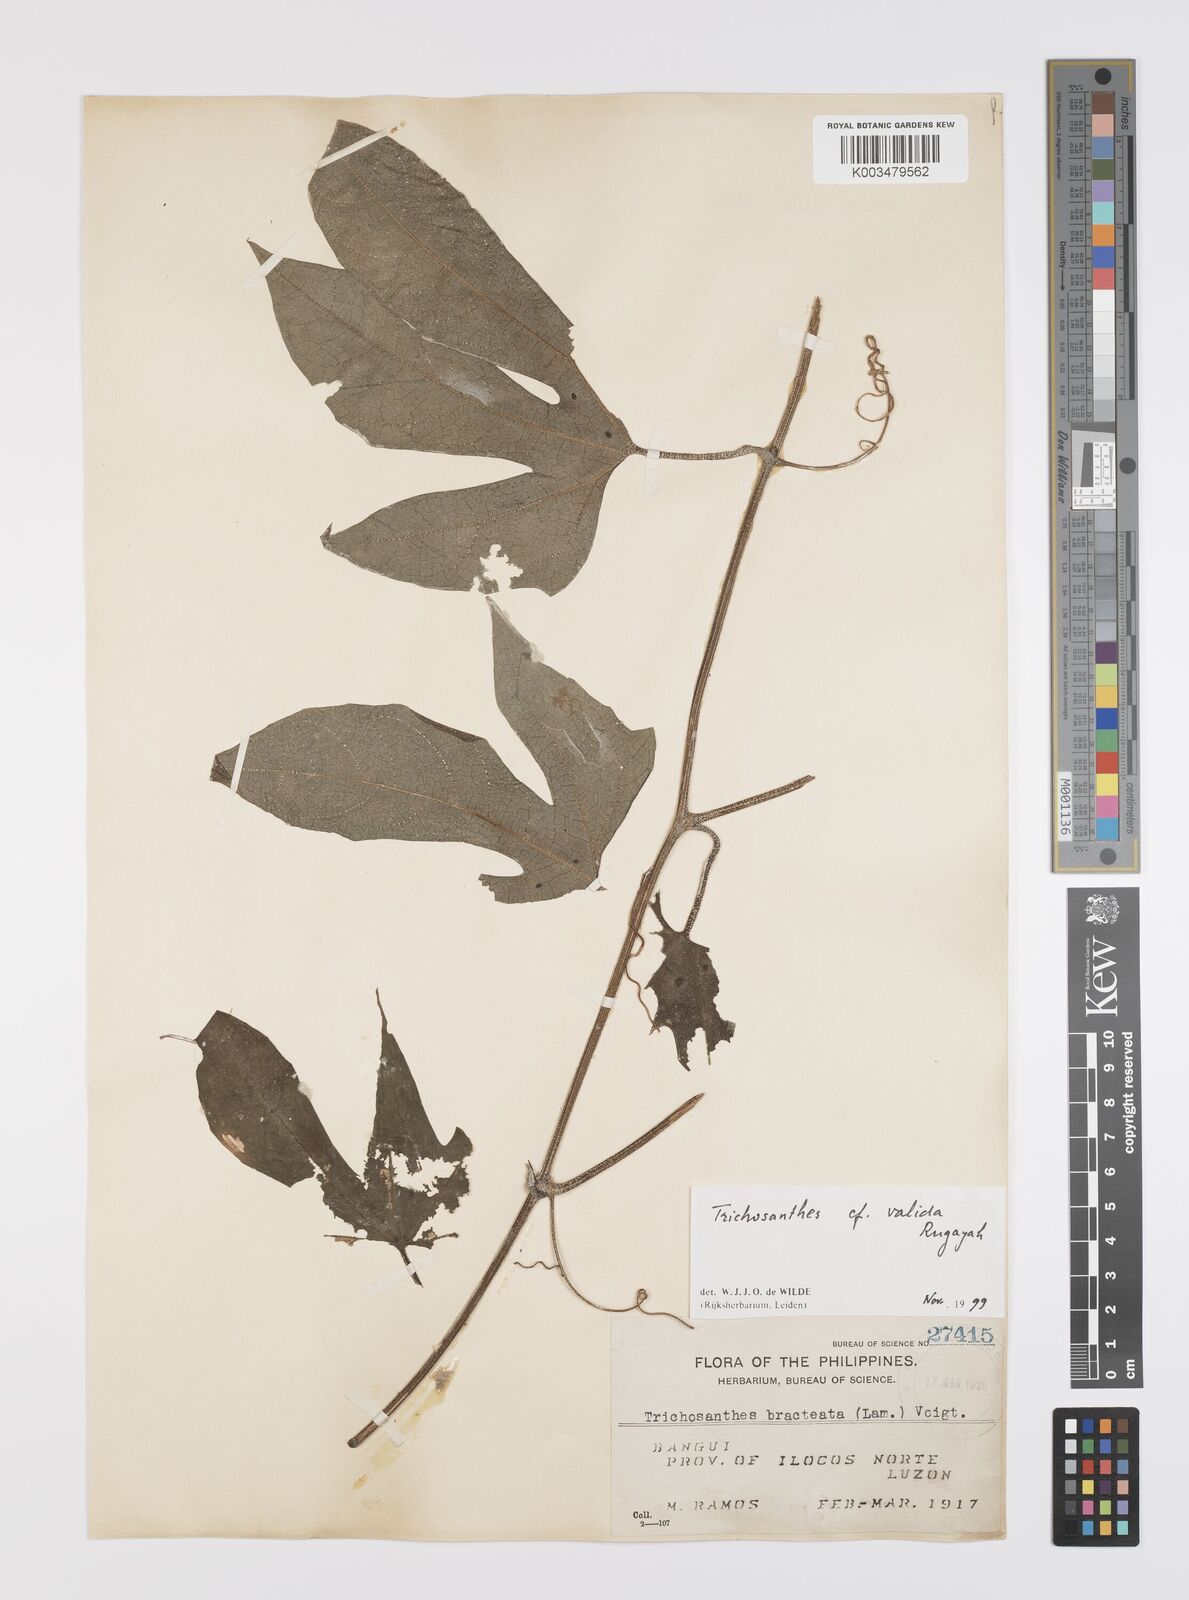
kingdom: Plantae
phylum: Tracheophyta
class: Magnoliopsida
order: Cucurbitales
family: Cucurbitaceae
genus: Trichosanthes
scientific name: Trichosanthes valida
